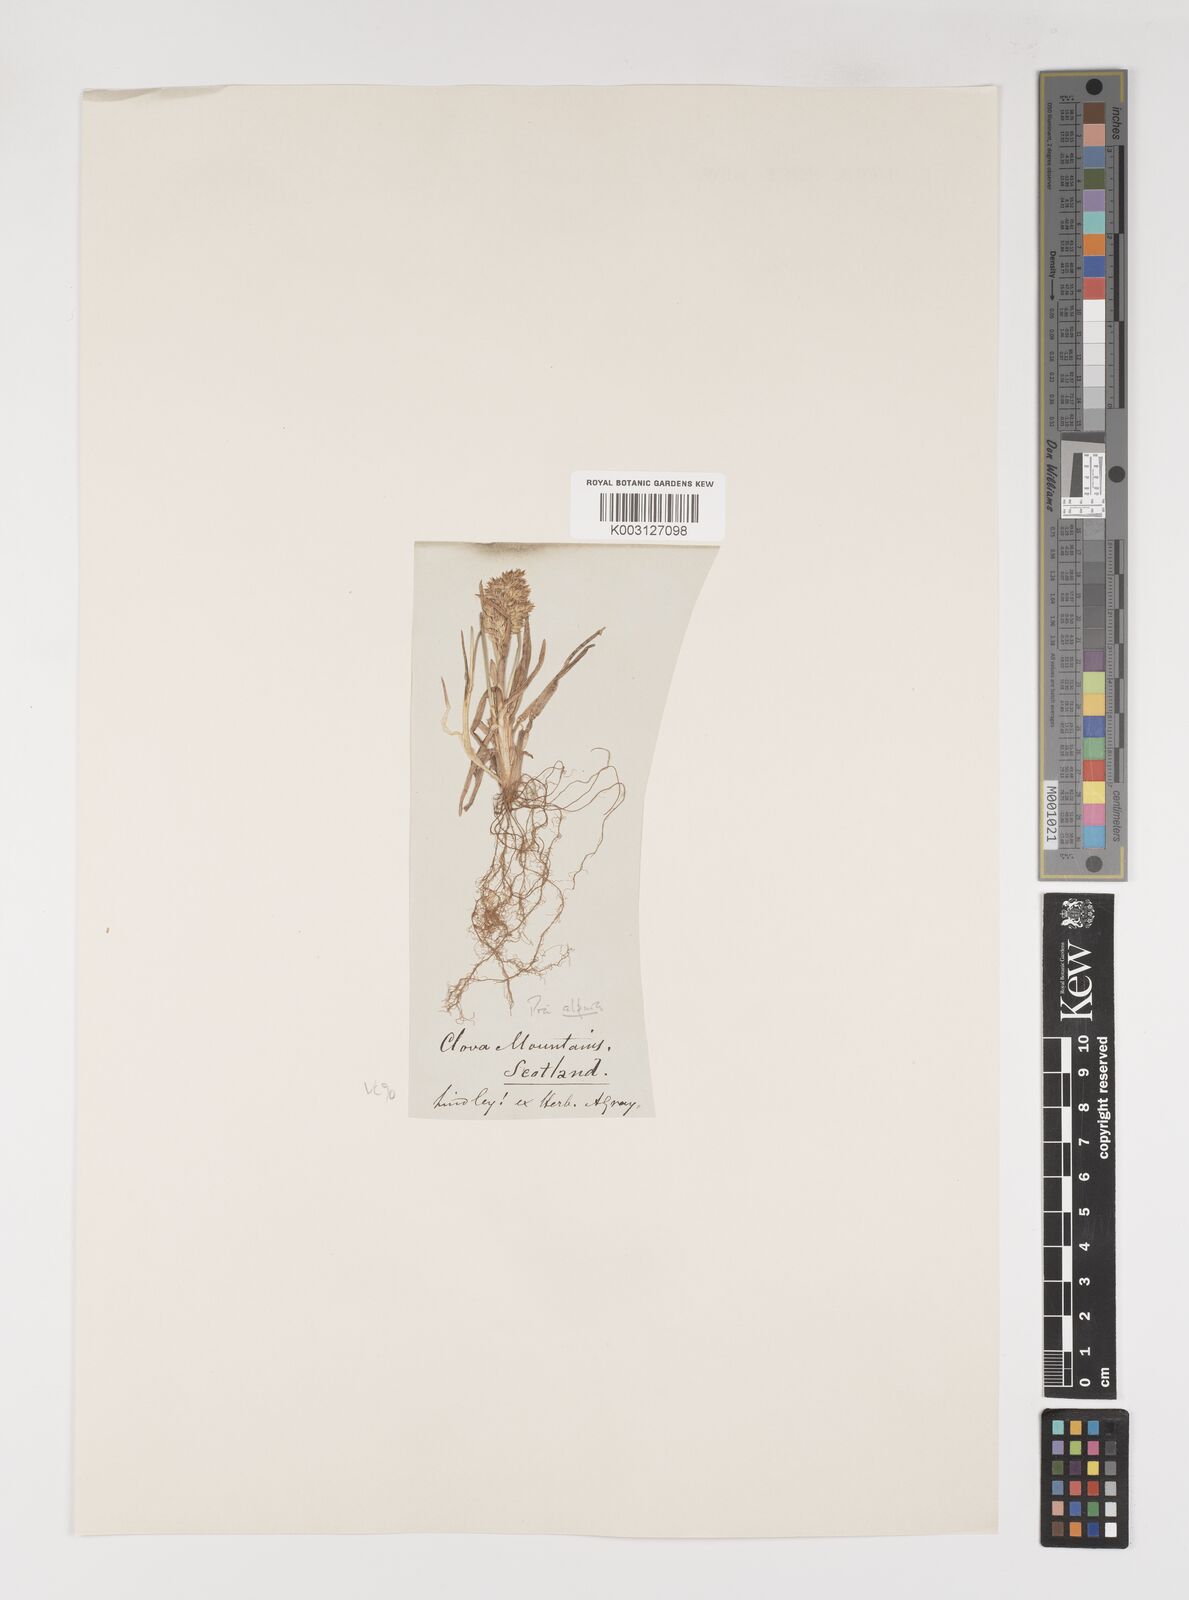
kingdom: Plantae
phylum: Tracheophyta
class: Liliopsida
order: Poales
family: Poaceae
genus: Poa
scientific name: Poa alpina
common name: Alpine bluegrass
